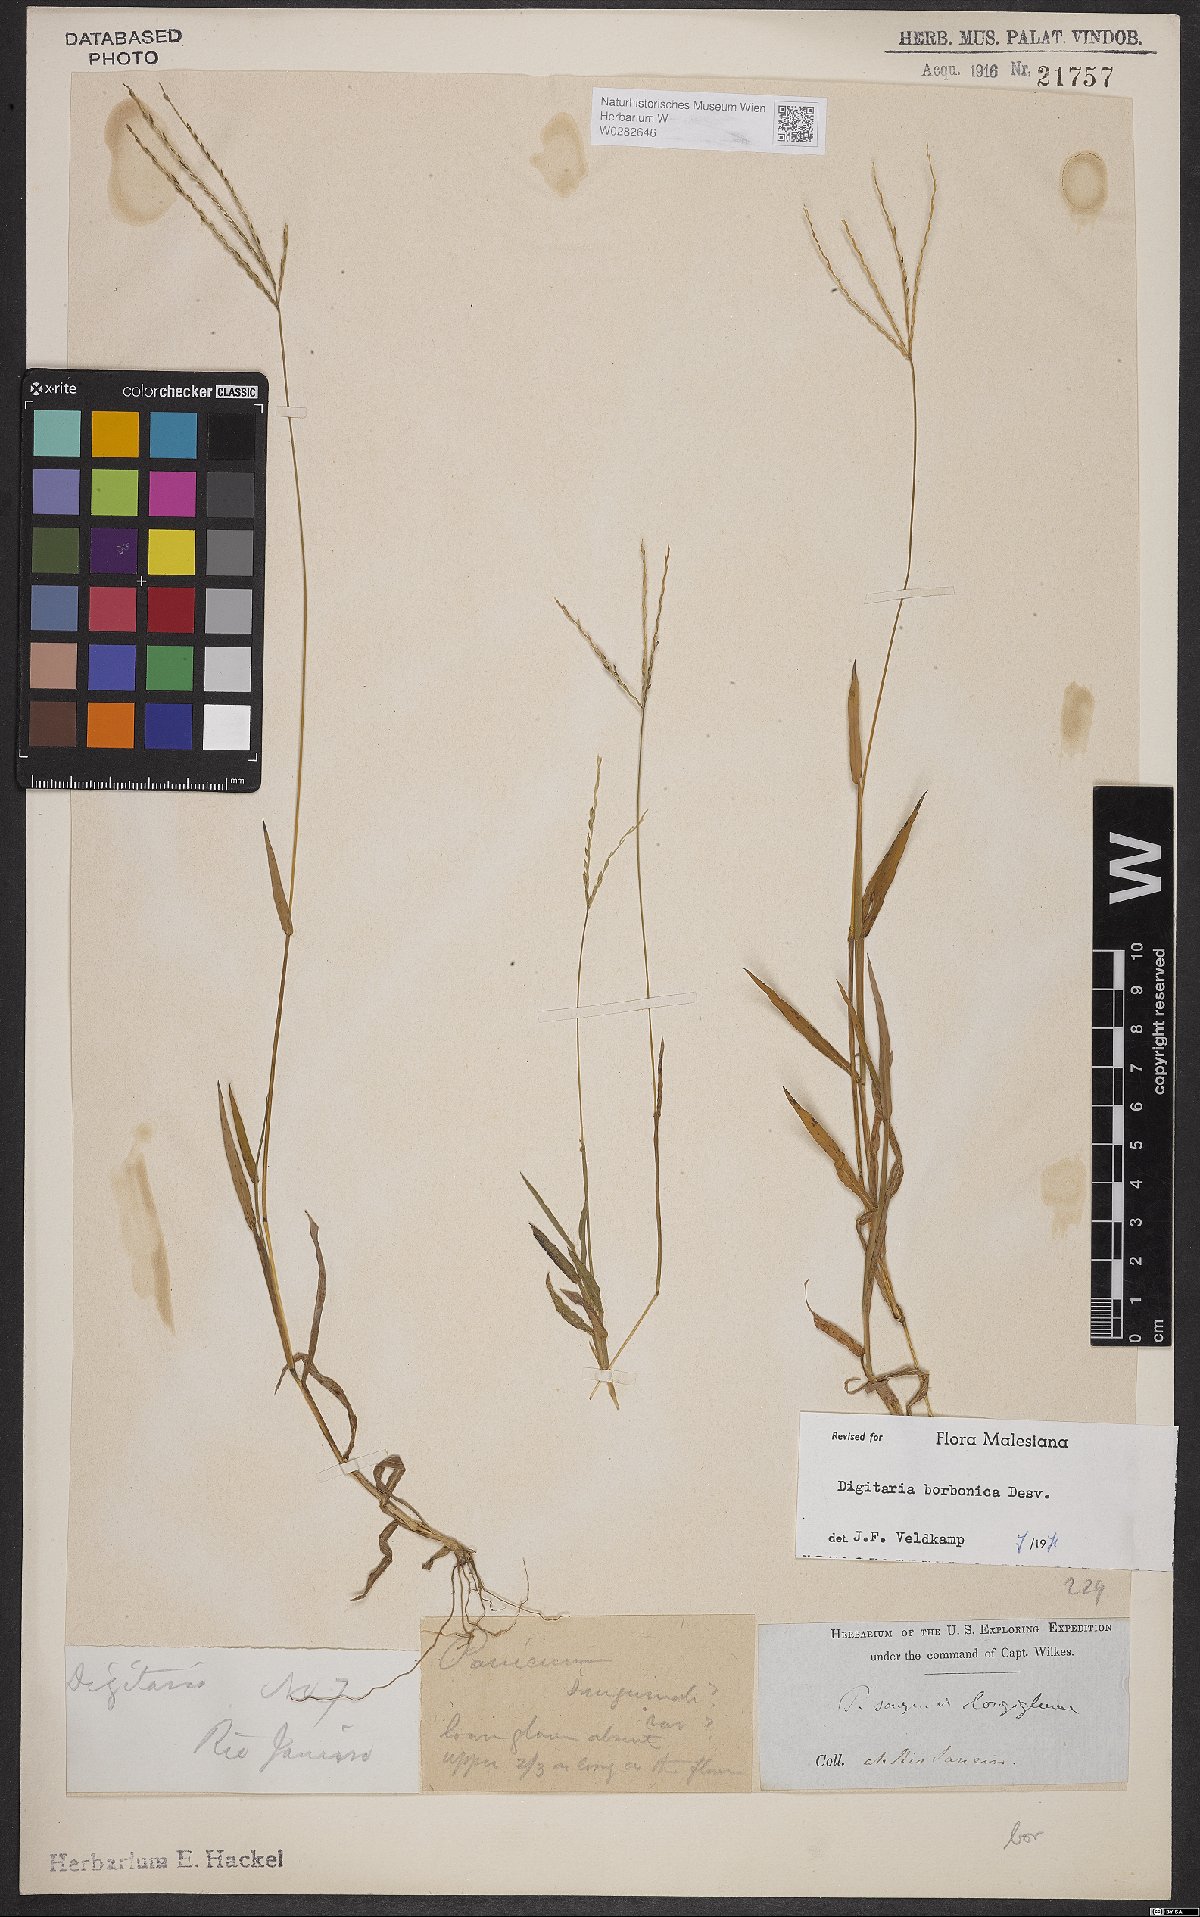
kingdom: Plantae
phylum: Tracheophyta
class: Liliopsida
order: Poales
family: Poaceae
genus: Digitaria
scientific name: Digitaria nuda
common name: Naked crabgrass
